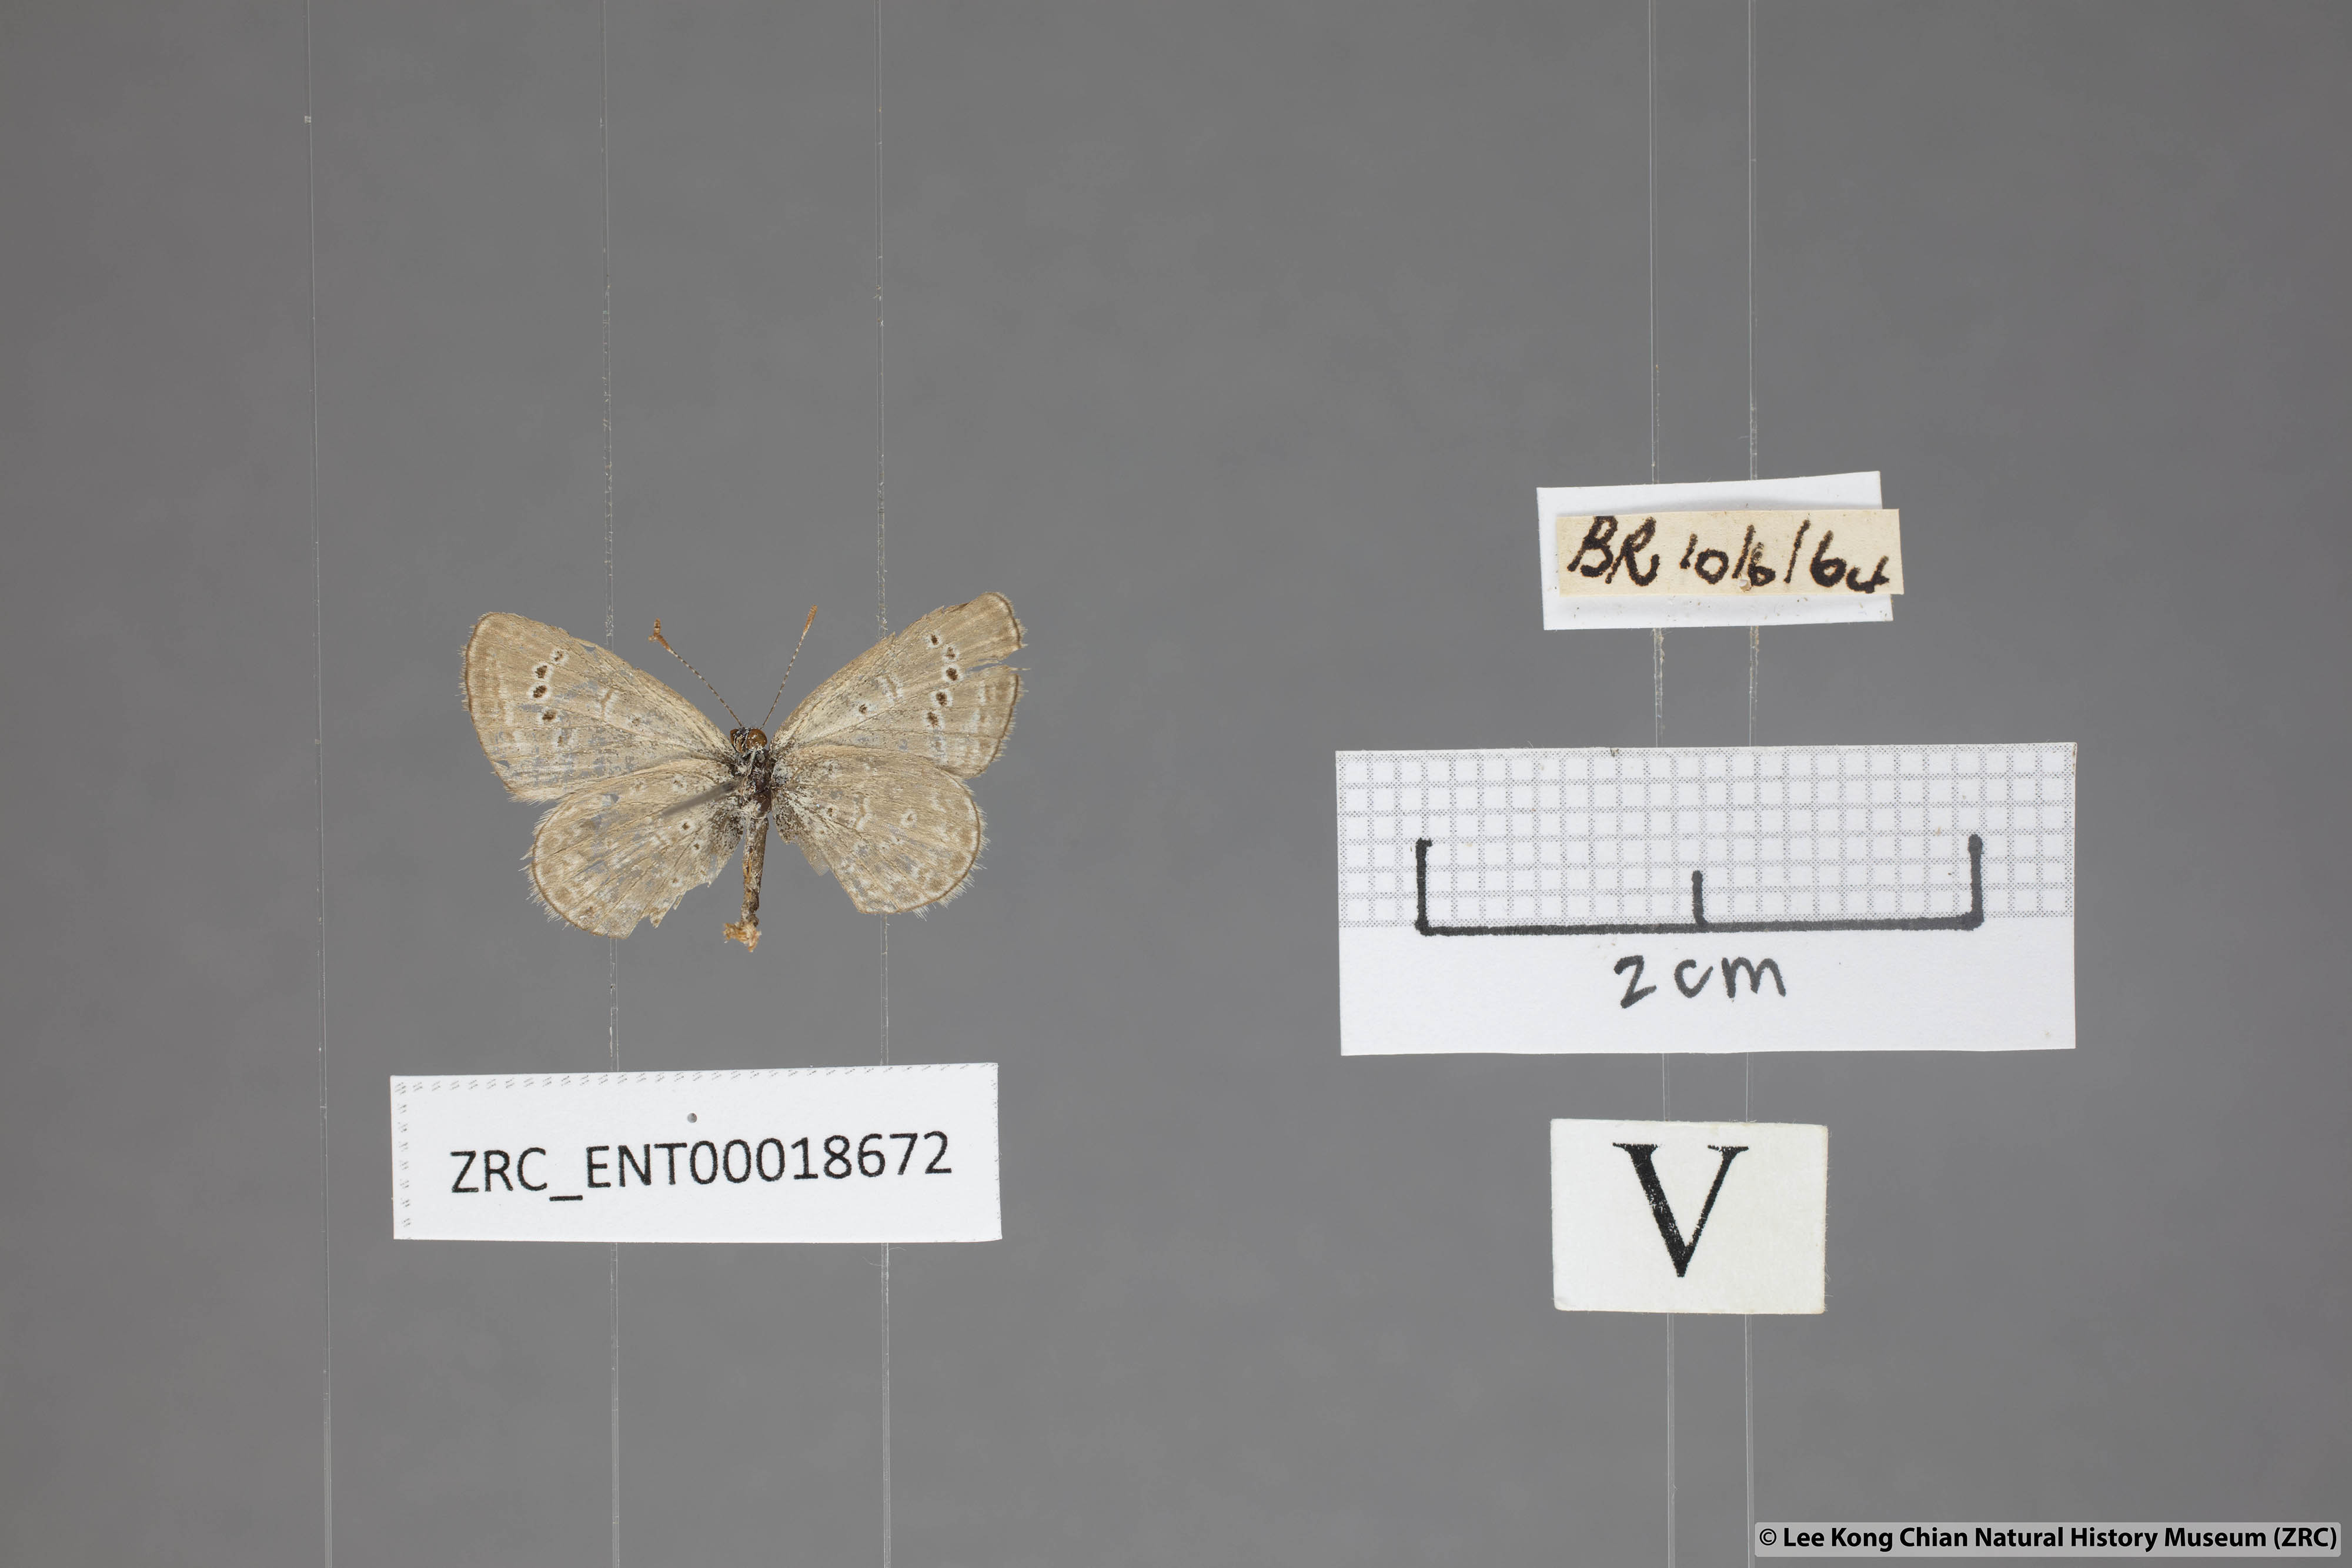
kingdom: Animalia
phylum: Arthropoda
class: Insecta
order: Lepidoptera
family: Lycaenidae
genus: Zizeeria
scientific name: Zizeeria karsandra
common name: Dark grass blue
